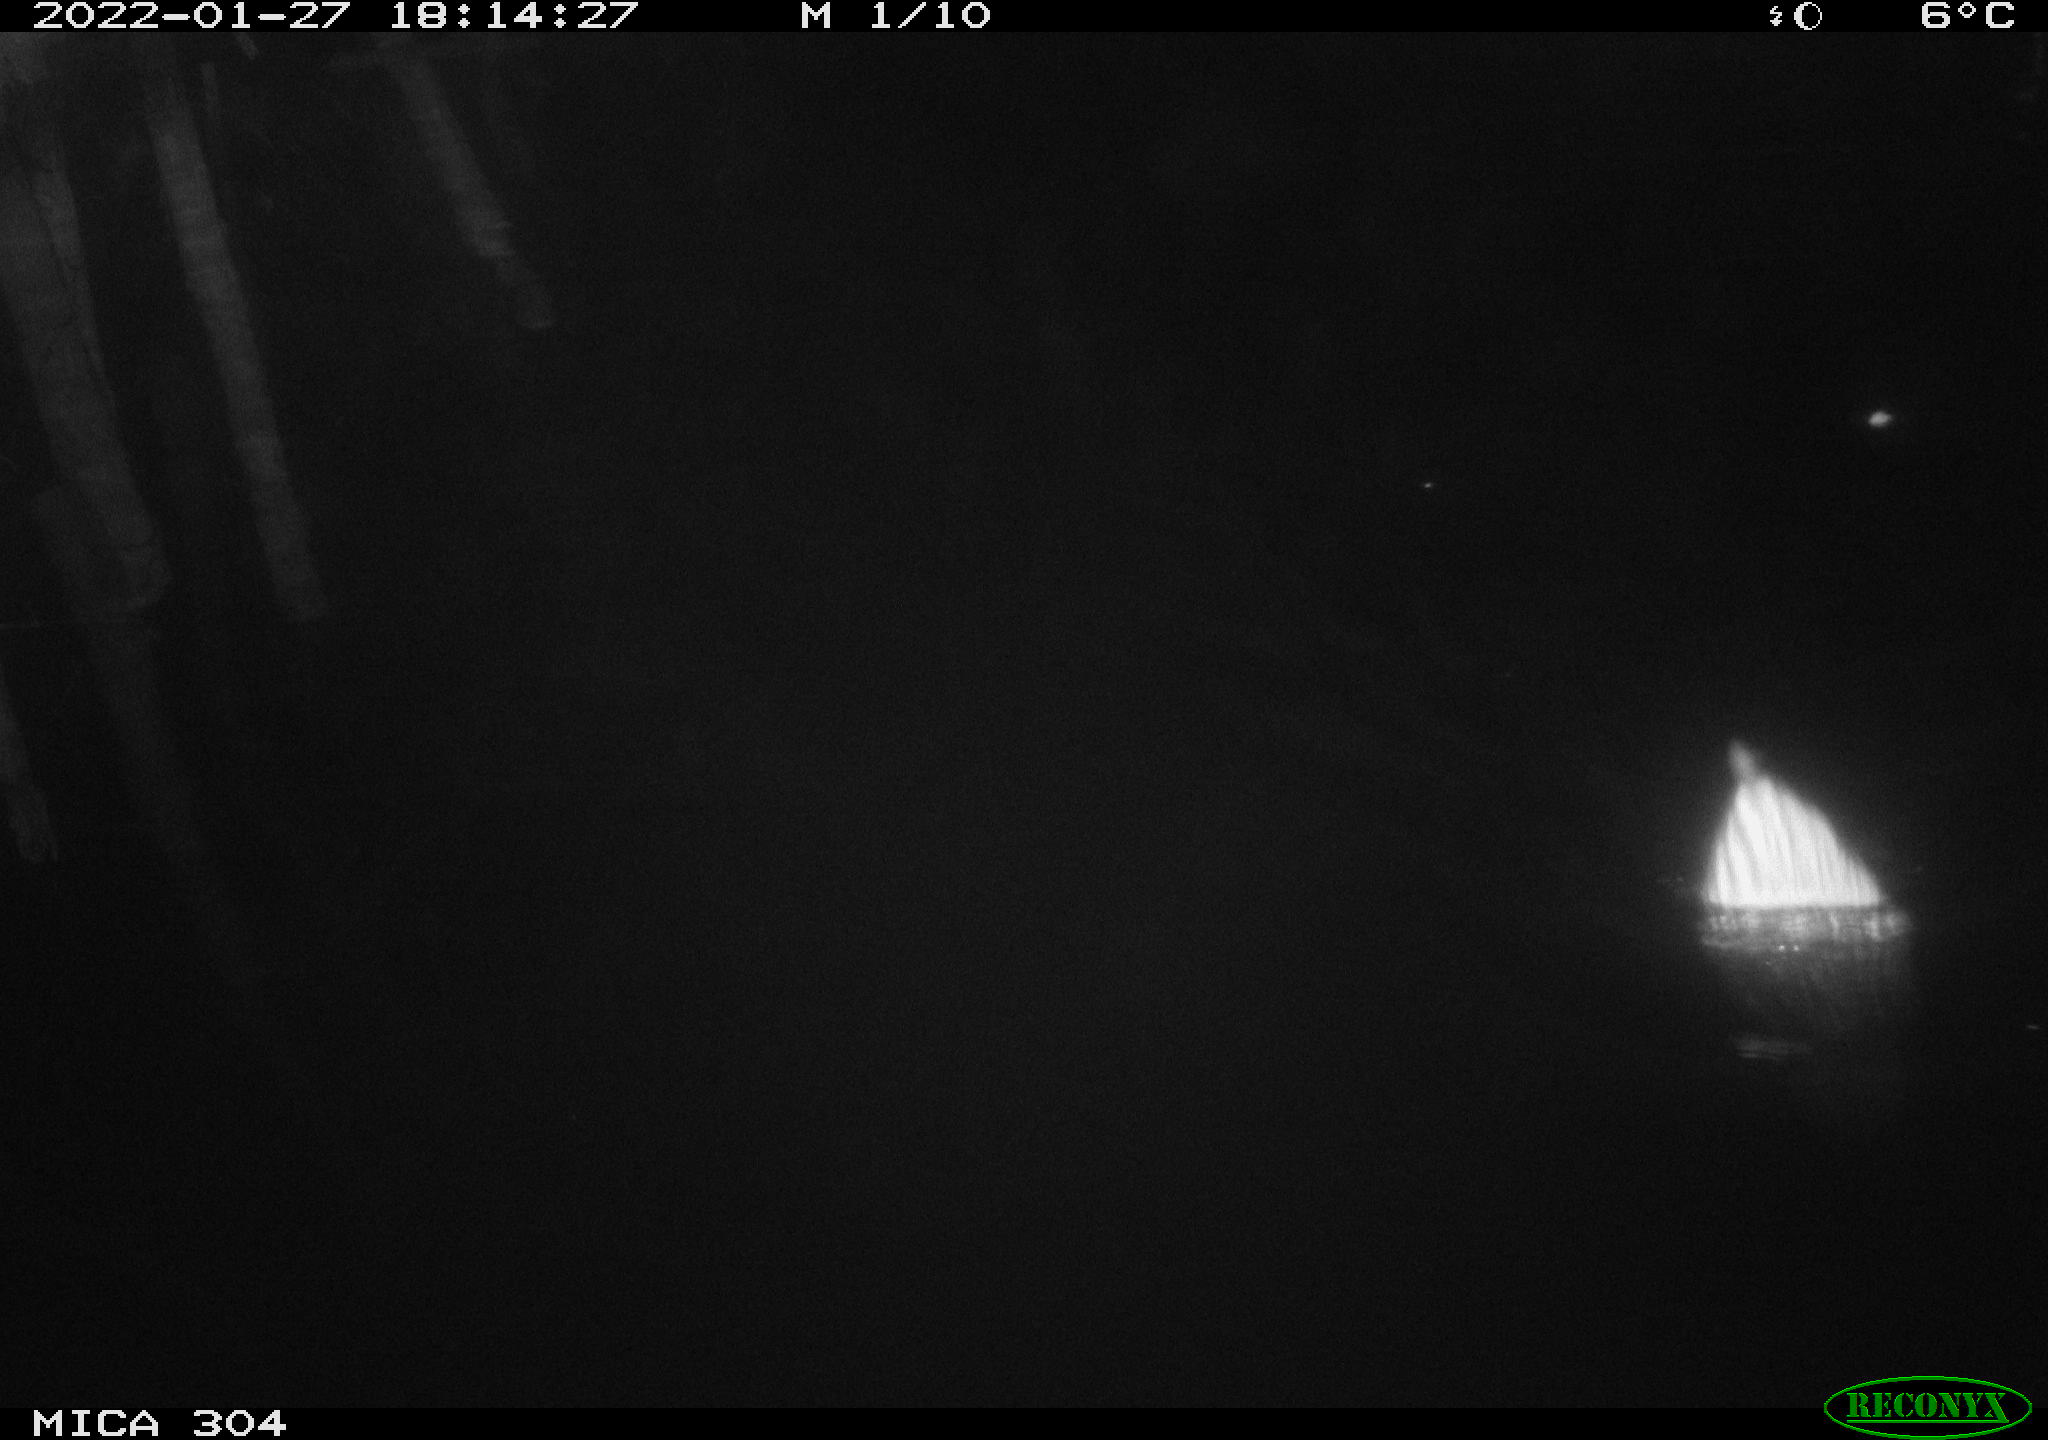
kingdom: Animalia
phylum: Chordata
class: Mammalia
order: Rodentia
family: Cricetidae
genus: Ondatra
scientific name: Ondatra zibethicus
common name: Muskrat
